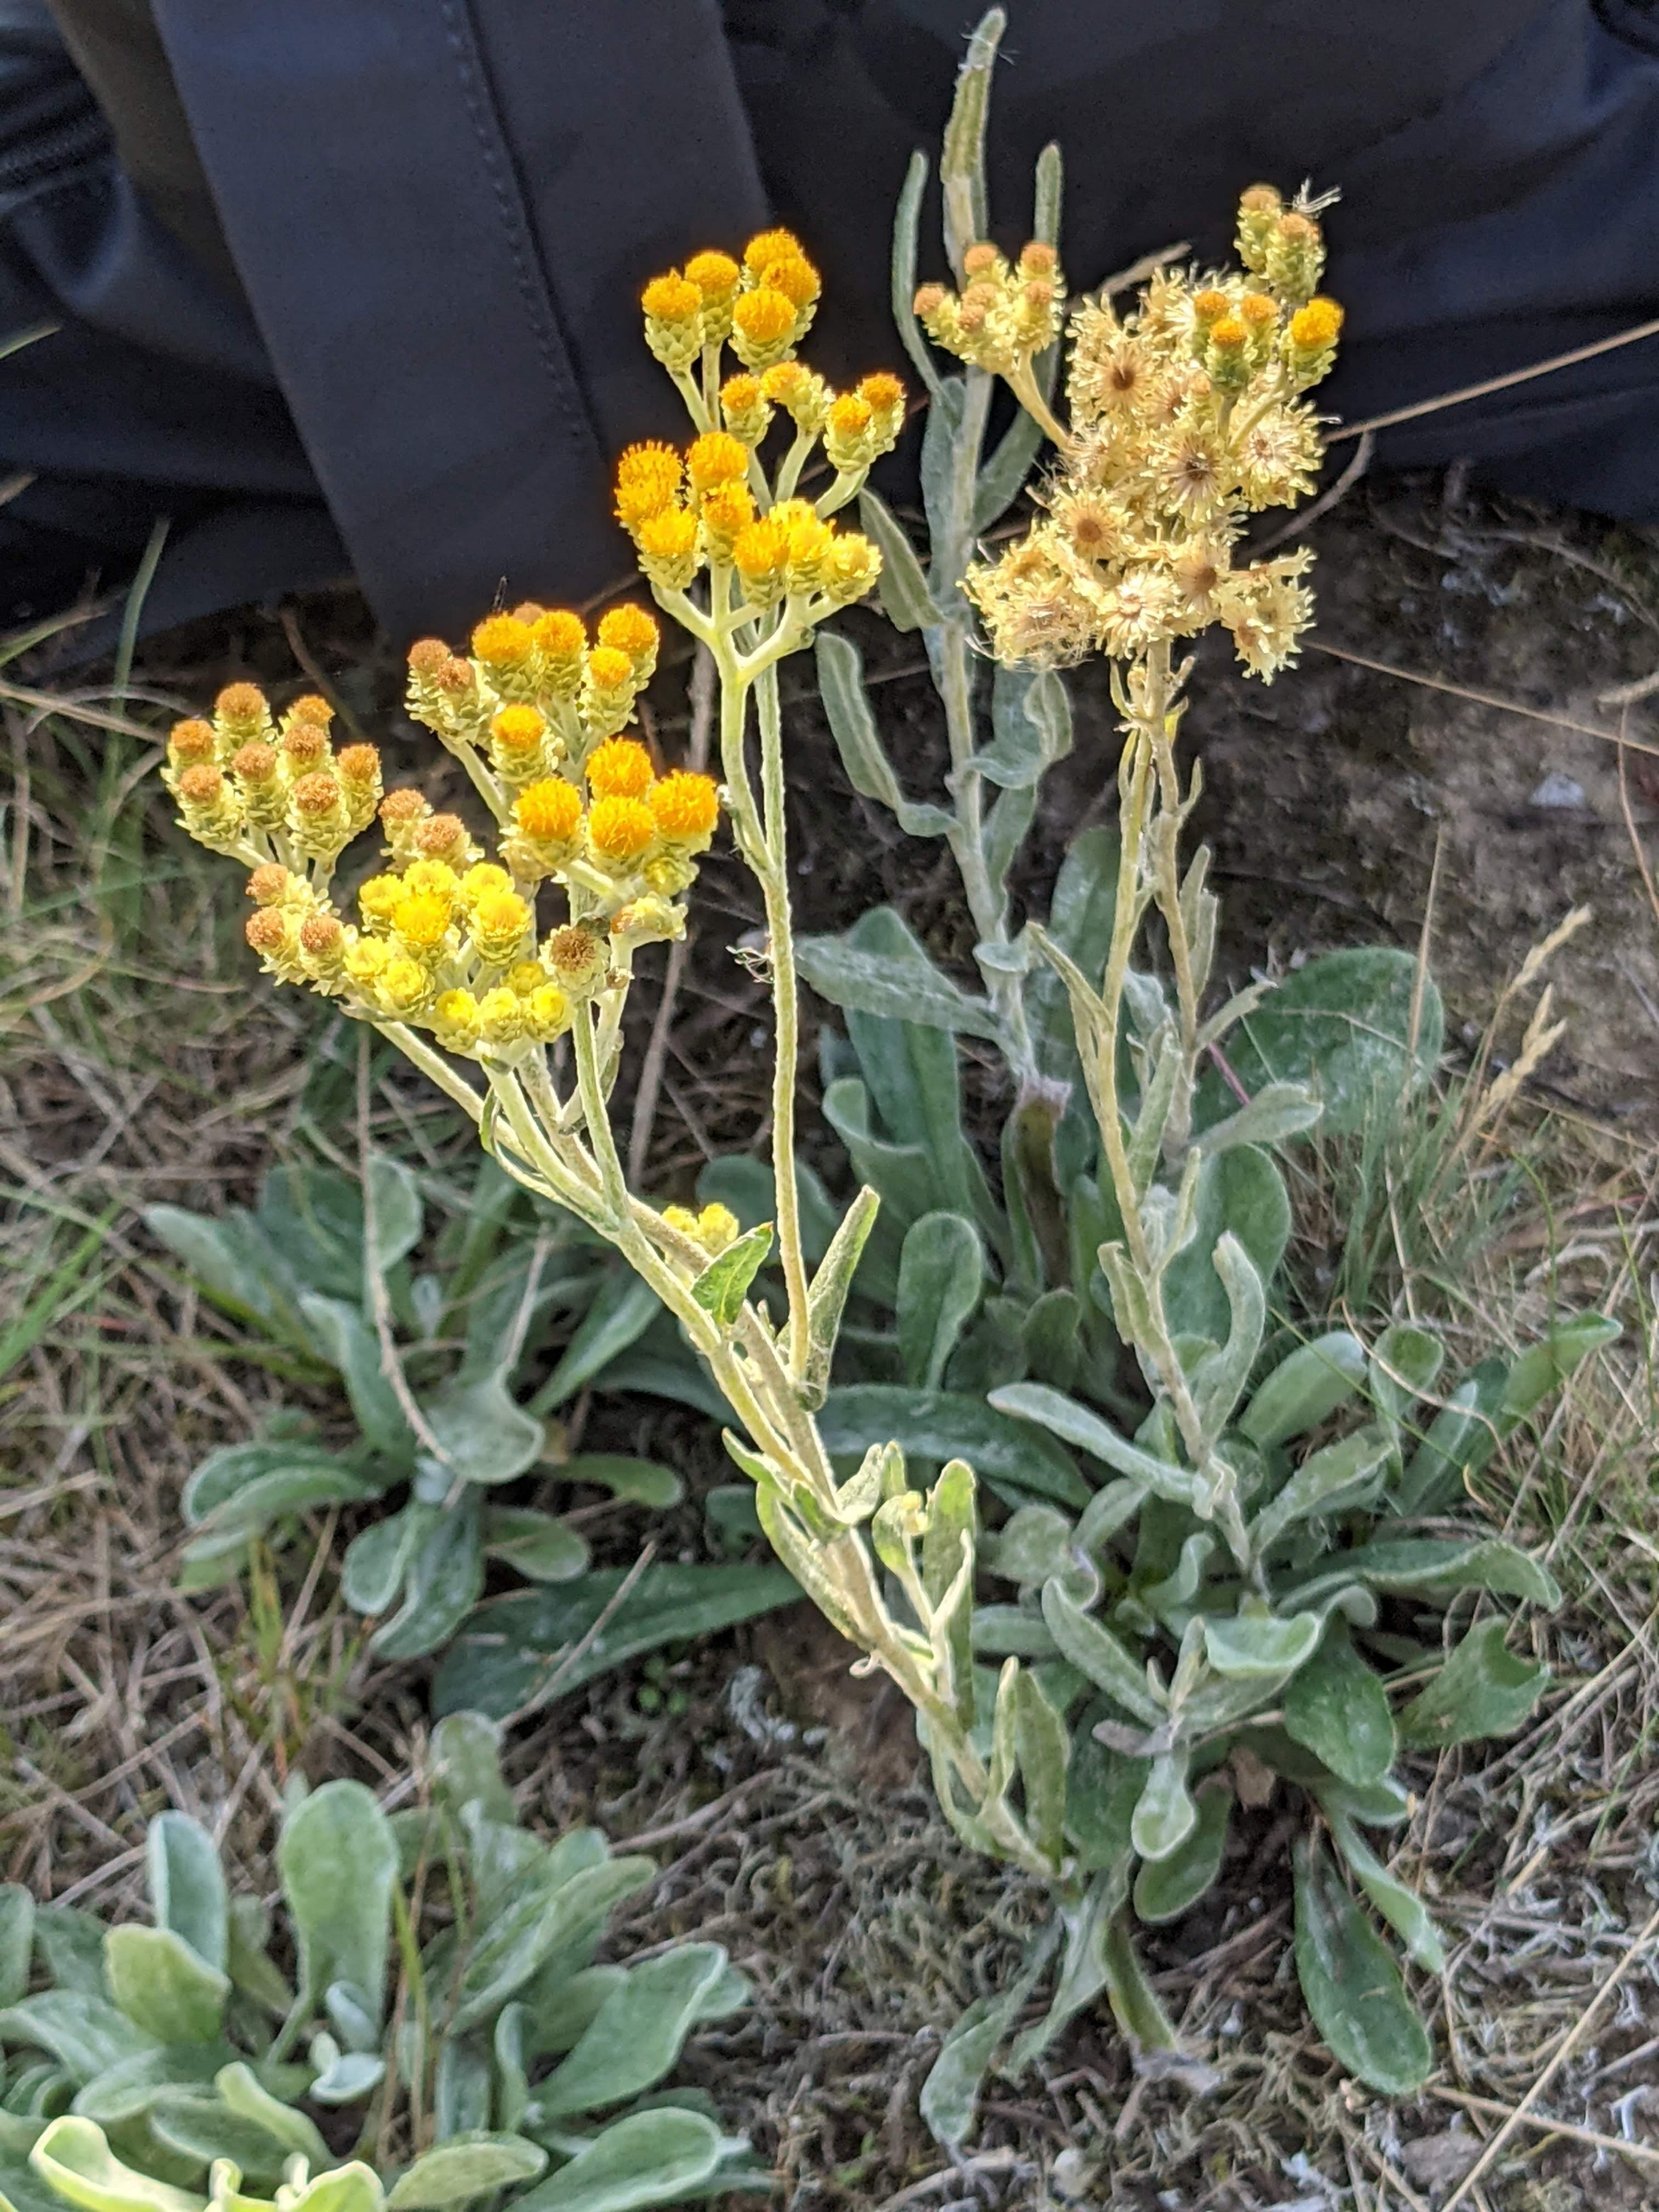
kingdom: Plantae
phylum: Tracheophyta
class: Magnoliopsida
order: Asterales
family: Asteraceae
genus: Helichrysum
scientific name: Helichrysum arenarium
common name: Gul evighedsblomst
